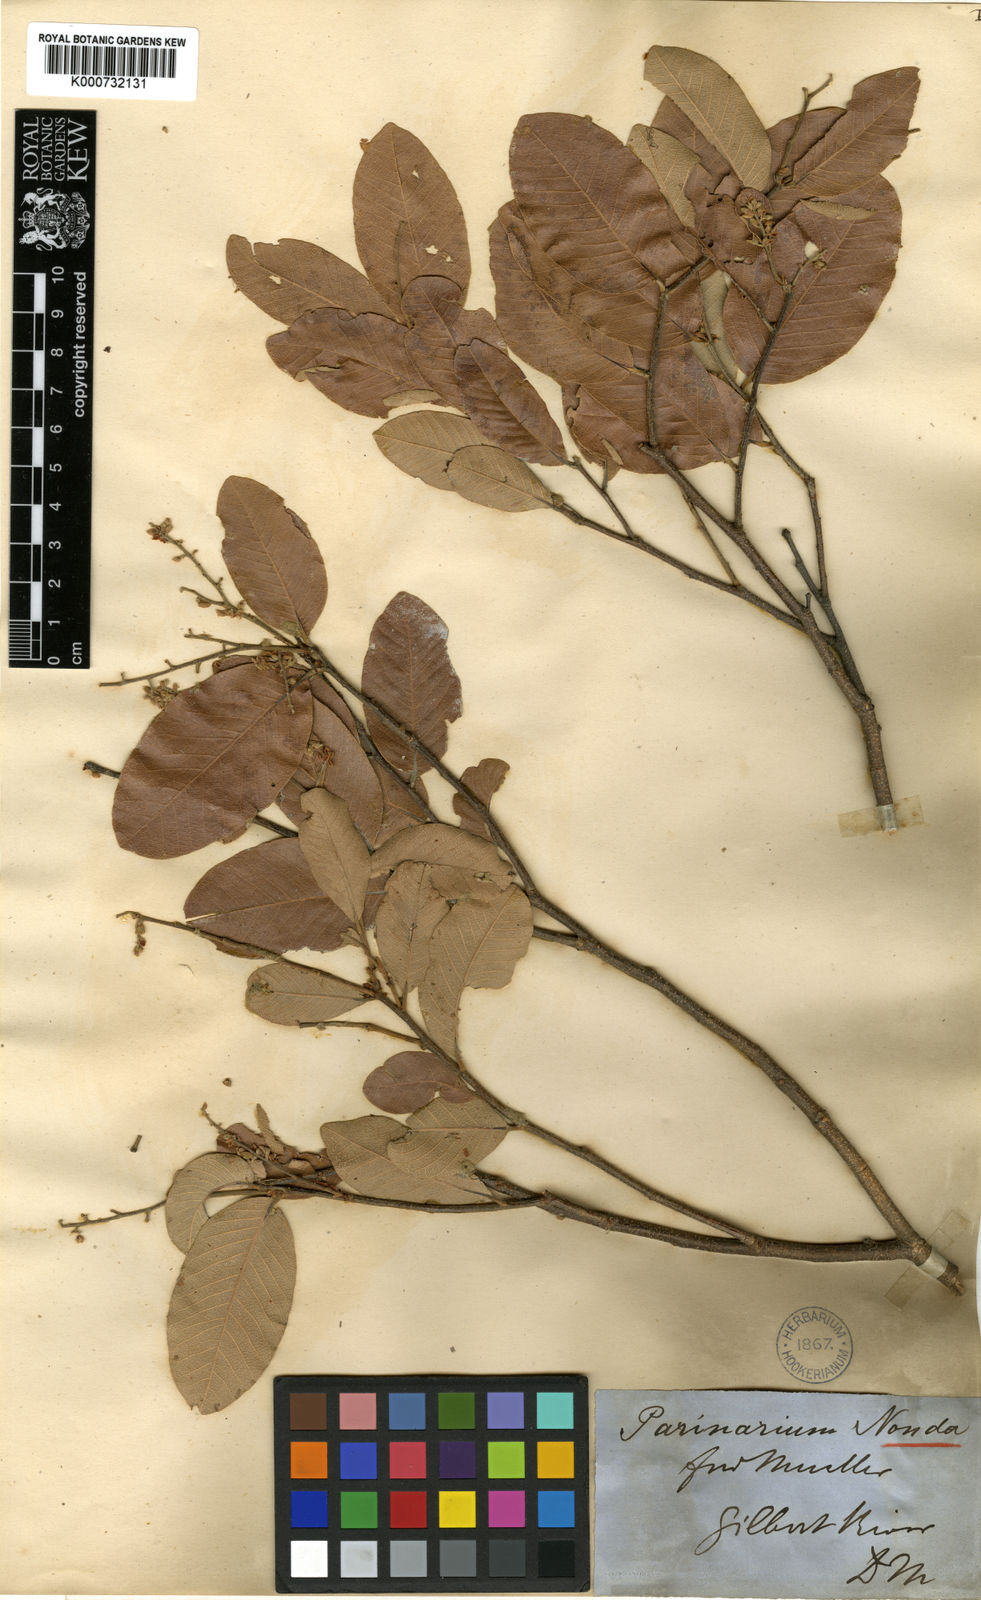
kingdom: Plantae
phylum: Tracheophyta
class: Magnoliopsida
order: Malpighiales
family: Chrysobalanaceae
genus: Parinari
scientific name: Parinari nonda
